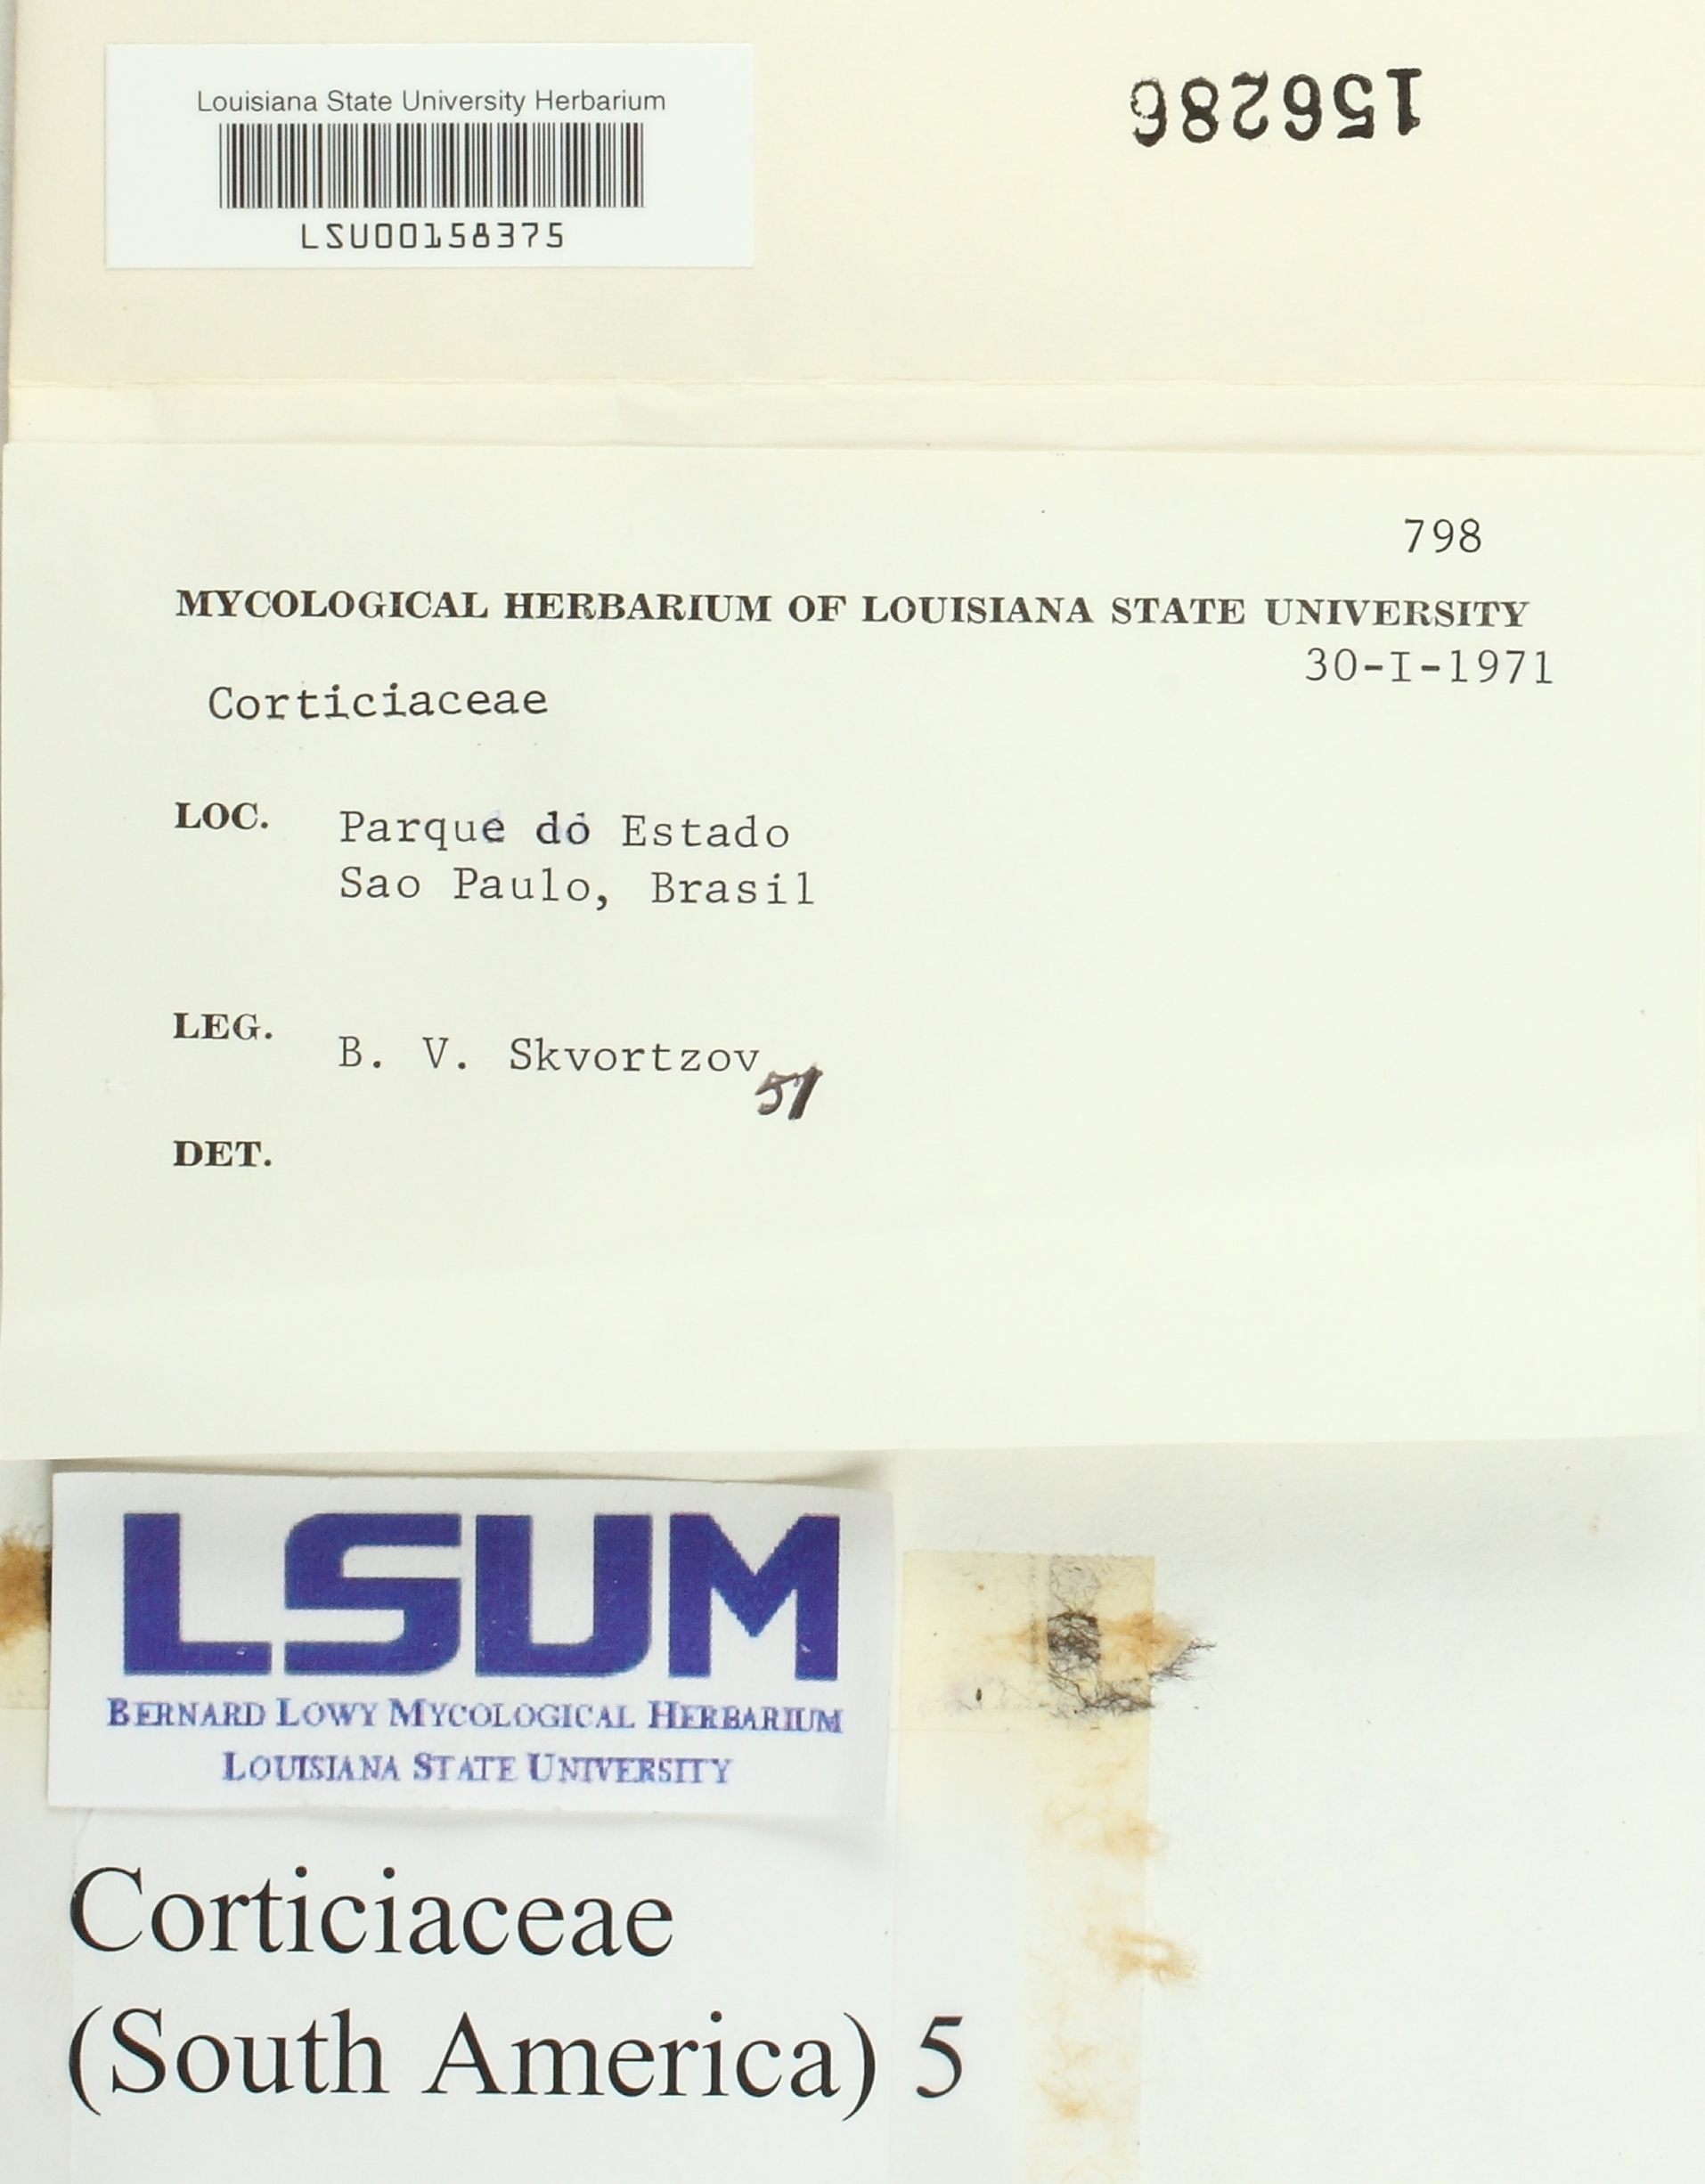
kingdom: Fungi
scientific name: Fungi
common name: Fungi
